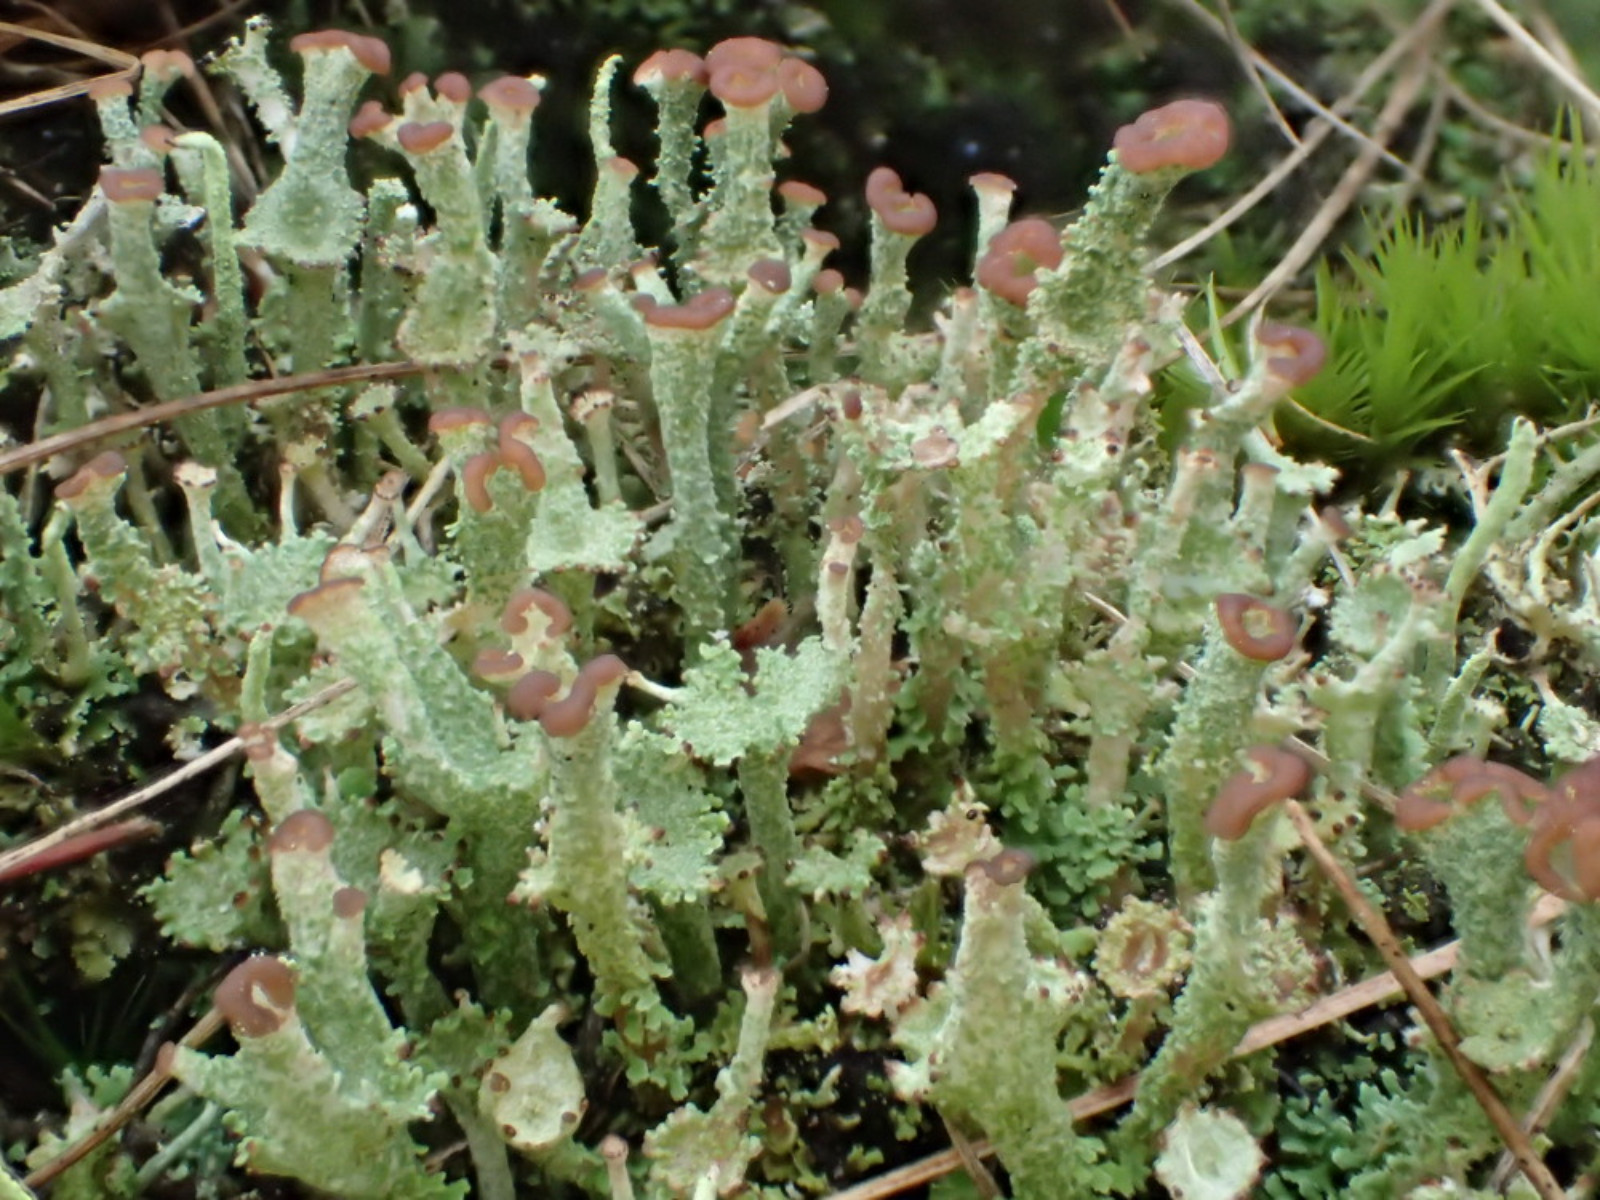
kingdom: Fungi
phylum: Ascomycota
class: Lecanoromycetes
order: Lecanorales
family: Cladoniaceae
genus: Cladonia
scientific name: Cladonia ramulosa
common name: kliddet bægerlav
